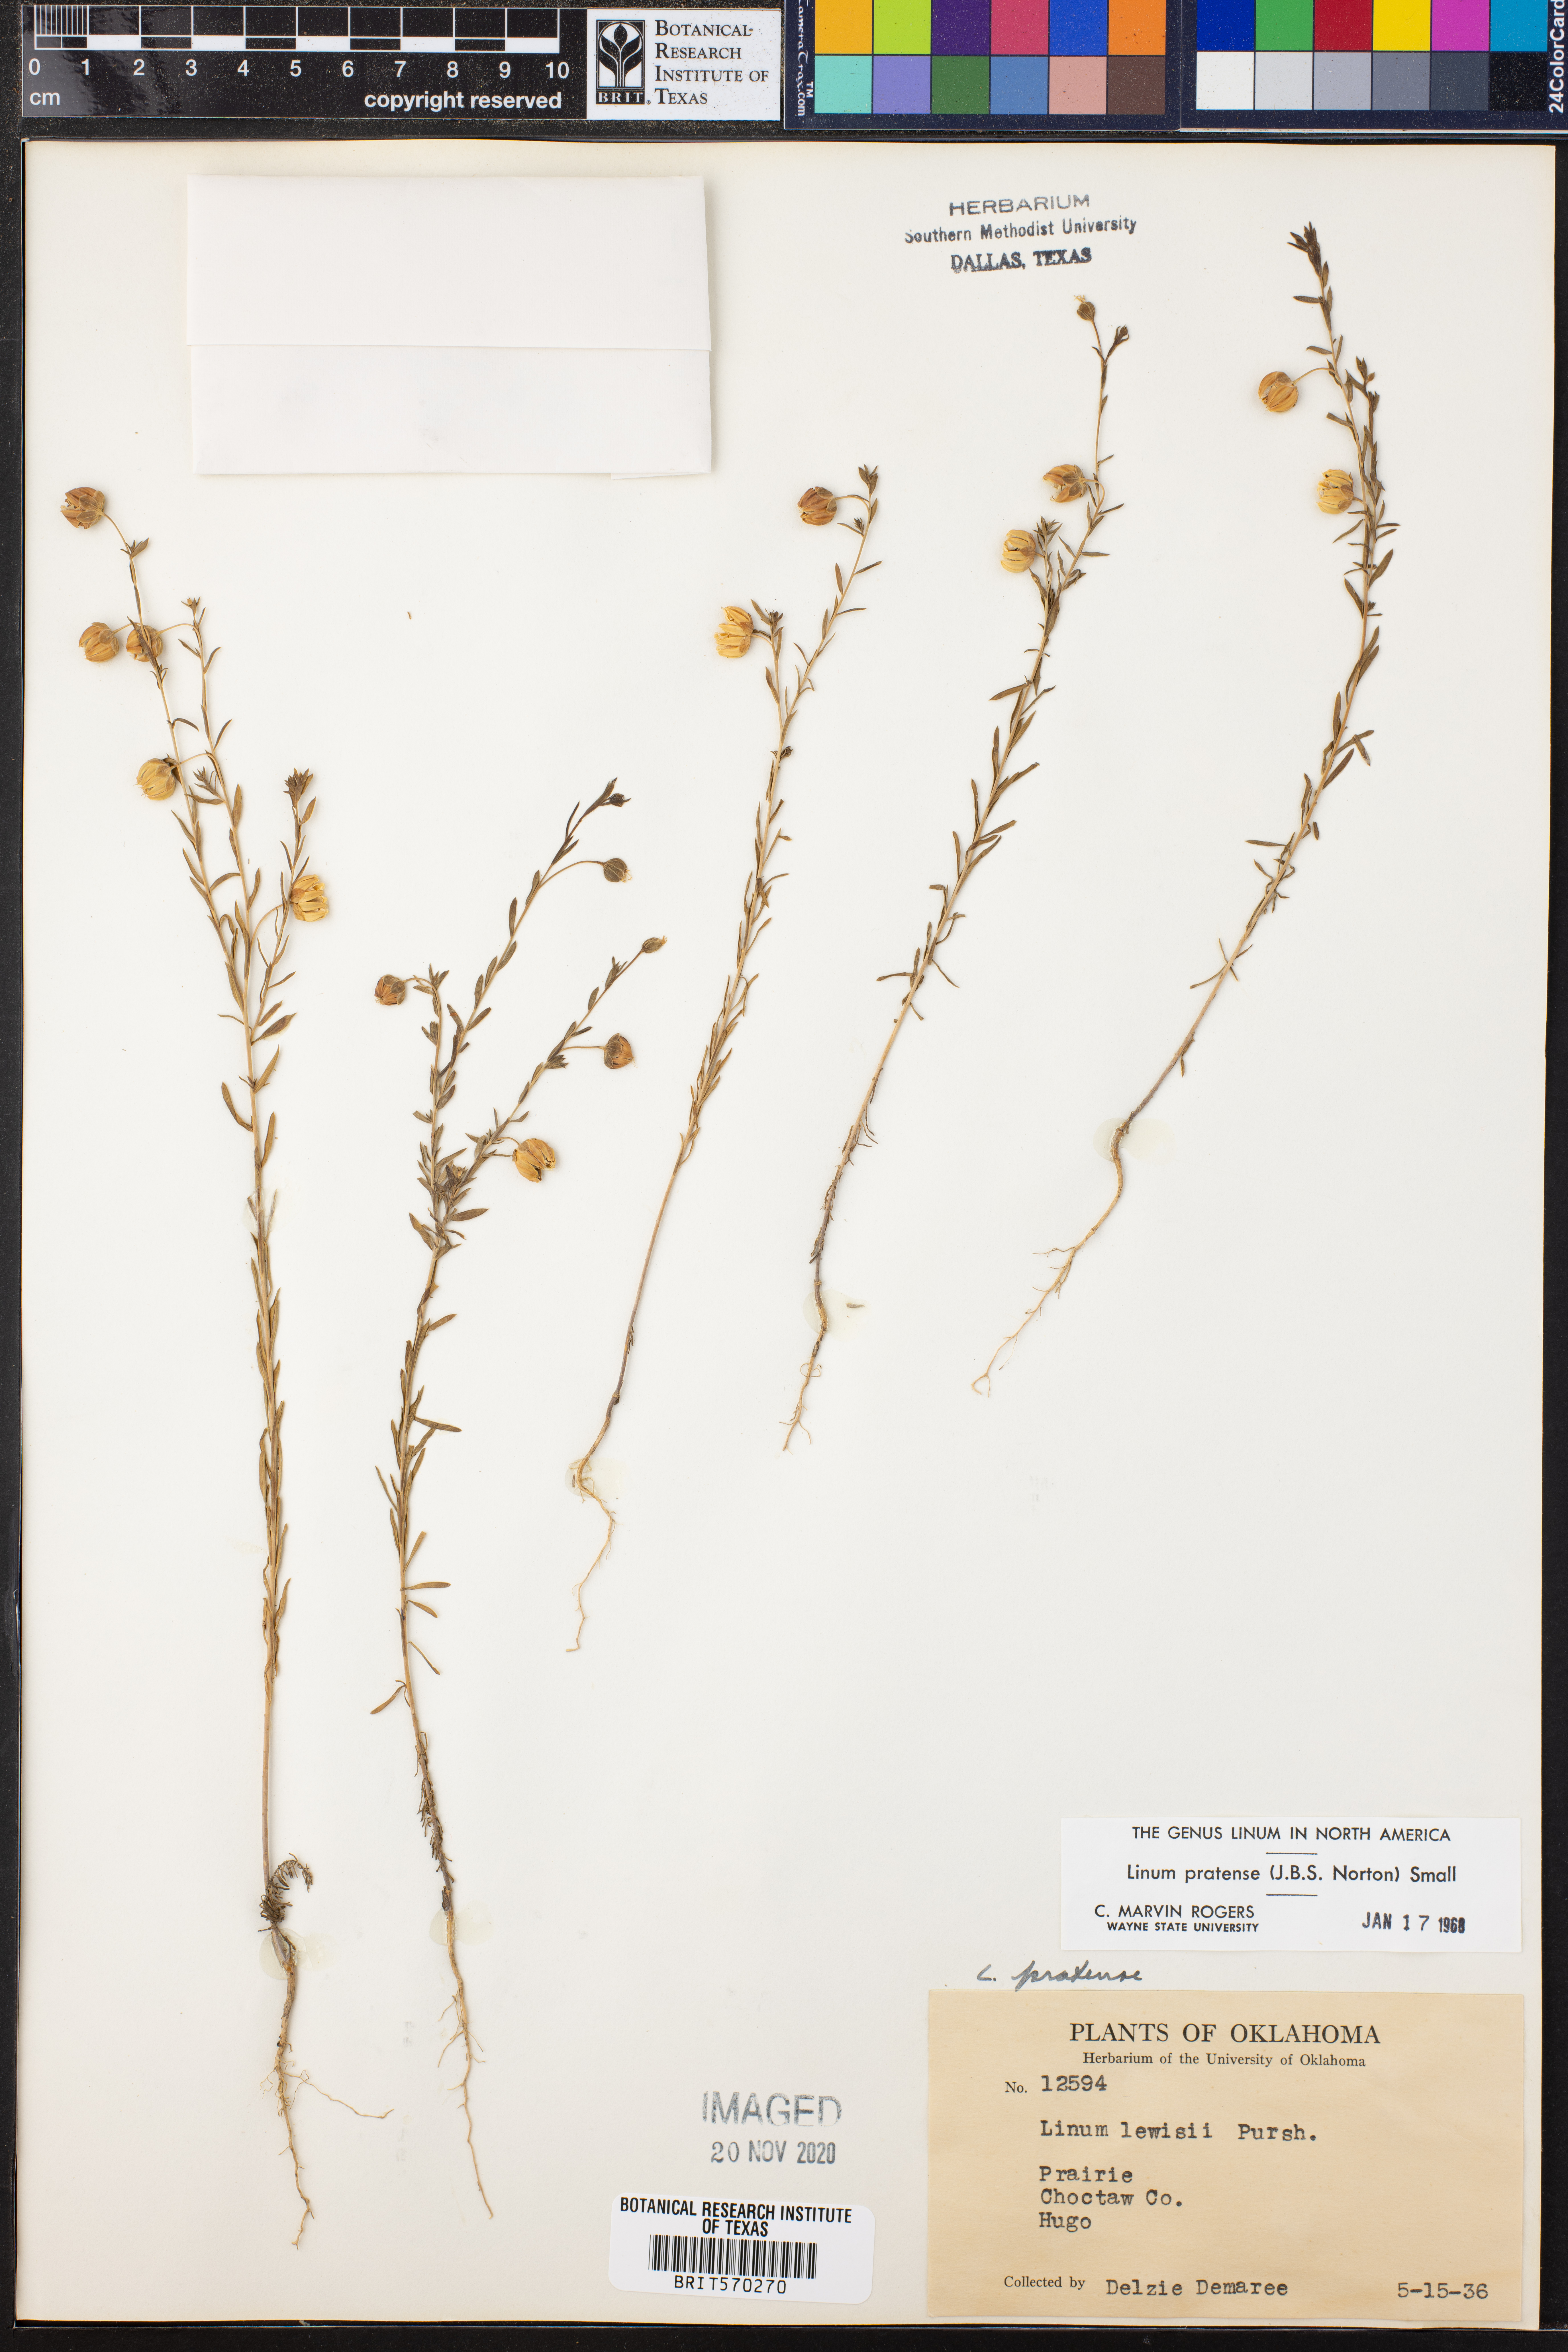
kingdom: Plantae
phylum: Tracheophyta
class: Magnoliopsida
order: Malpighiales
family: Linaceae
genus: Linum
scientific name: Linum pratense
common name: Norton's flax
